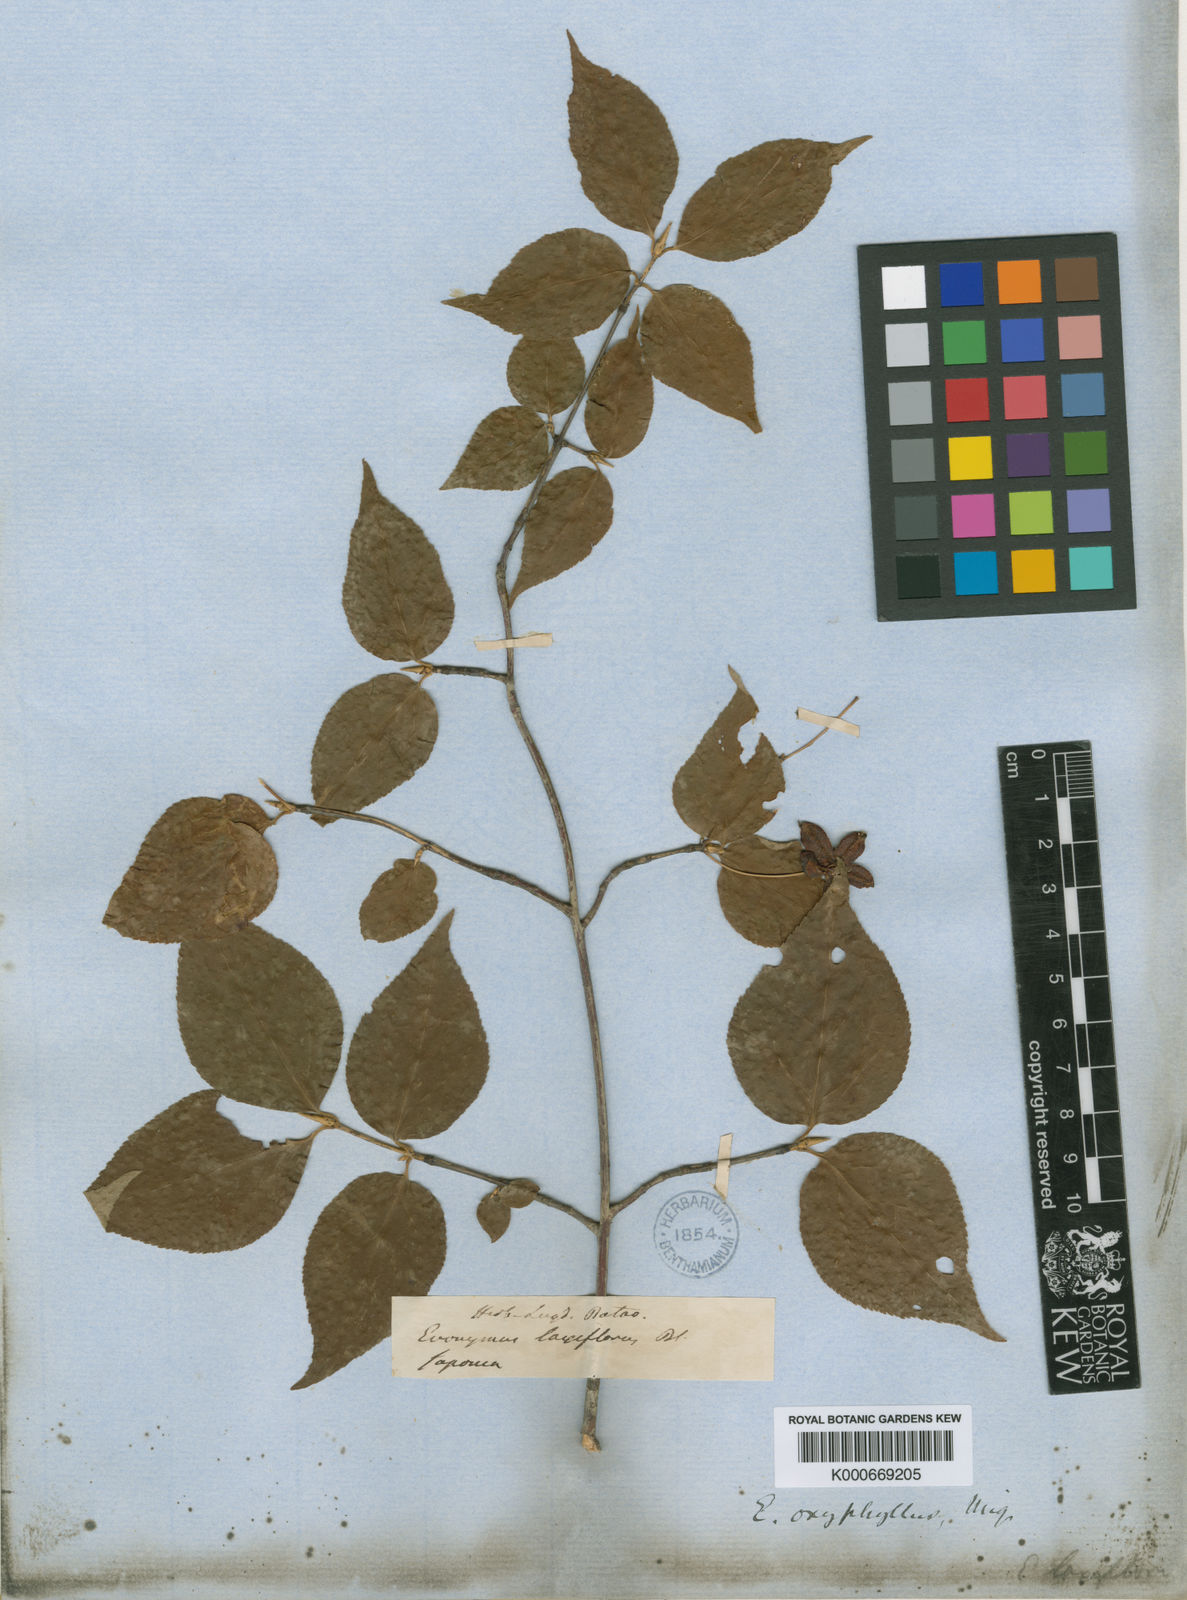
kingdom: Plantae
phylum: Tracheophyta
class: Magnoliopsida
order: Celastrales
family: Celastraceae
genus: Euonymus
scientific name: Euonymus oxyphyllus
